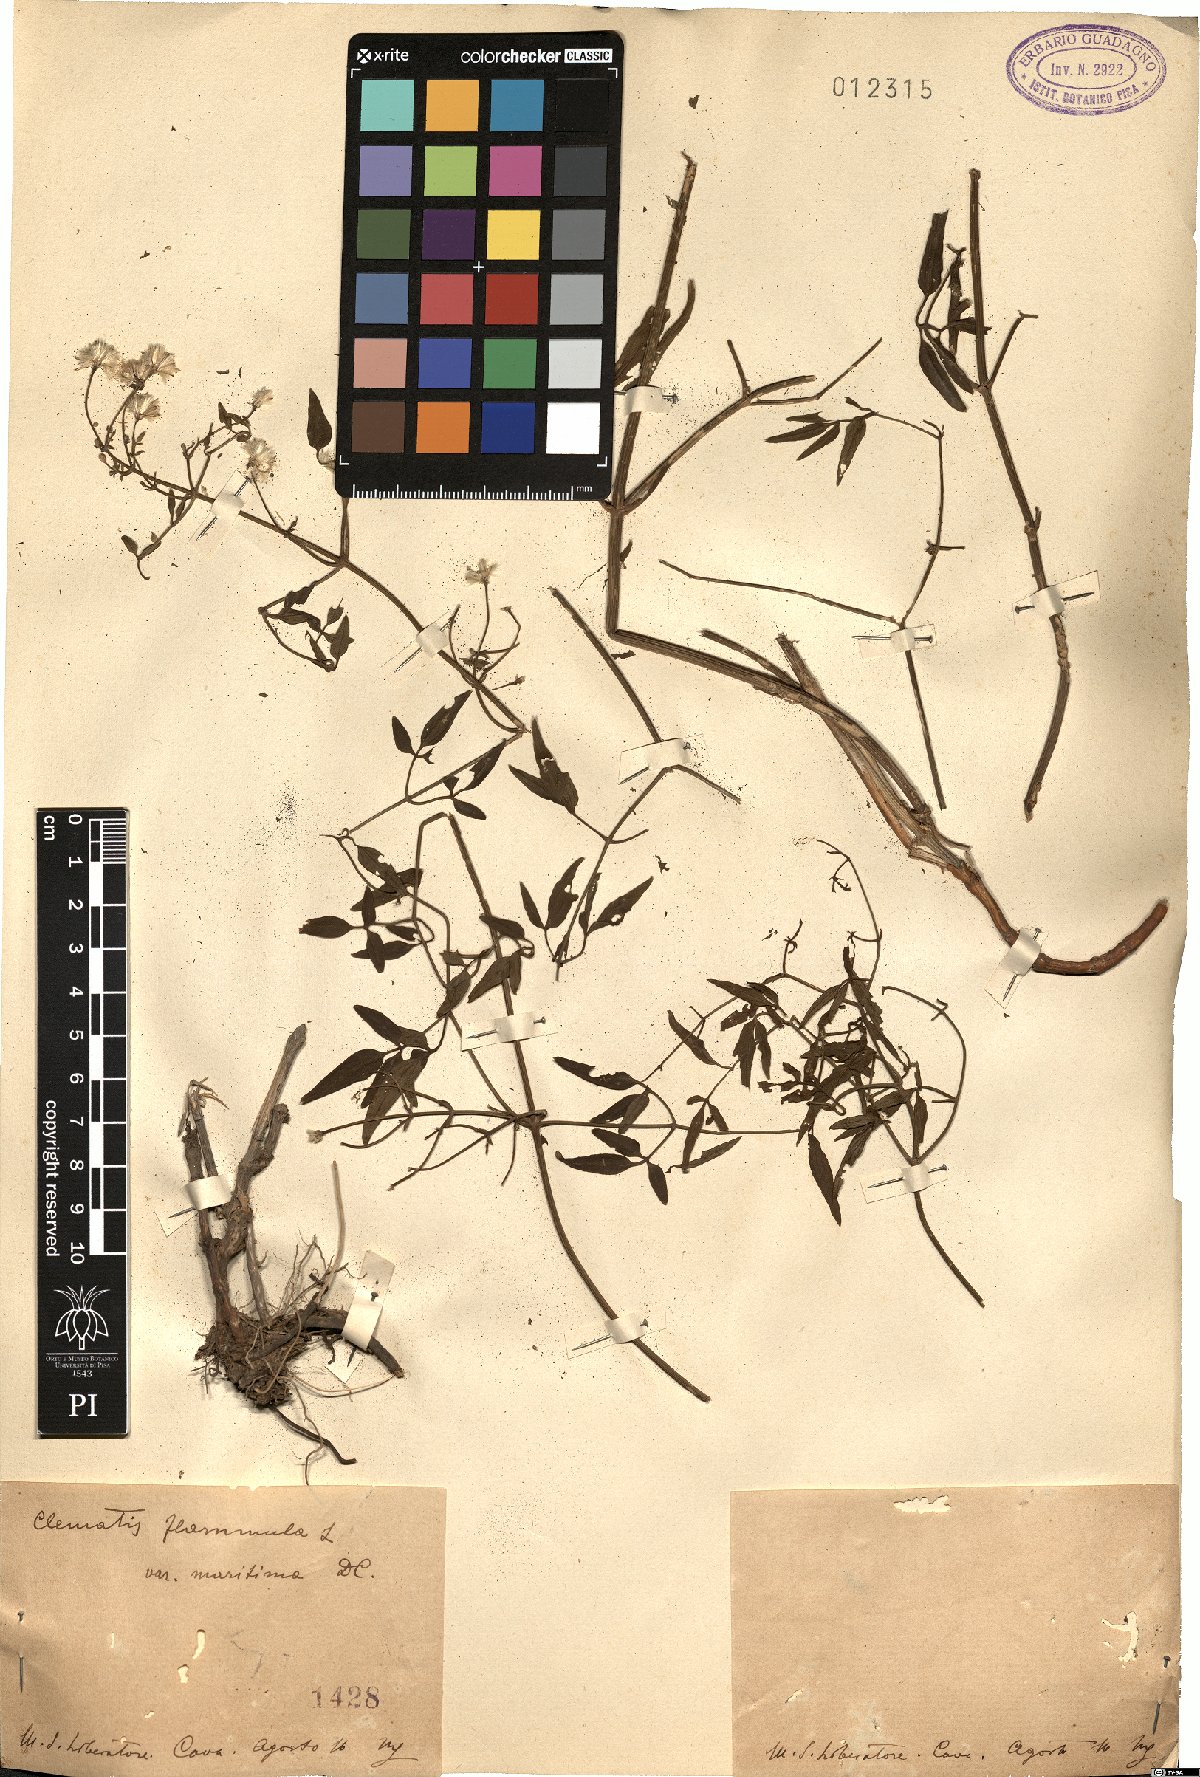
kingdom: Plantae
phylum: Tracheophyta
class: Magnoliopsida
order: Ranunculales
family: Ranunculaceae
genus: Clematis
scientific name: Clematis flammula
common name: Virgin's-bower
